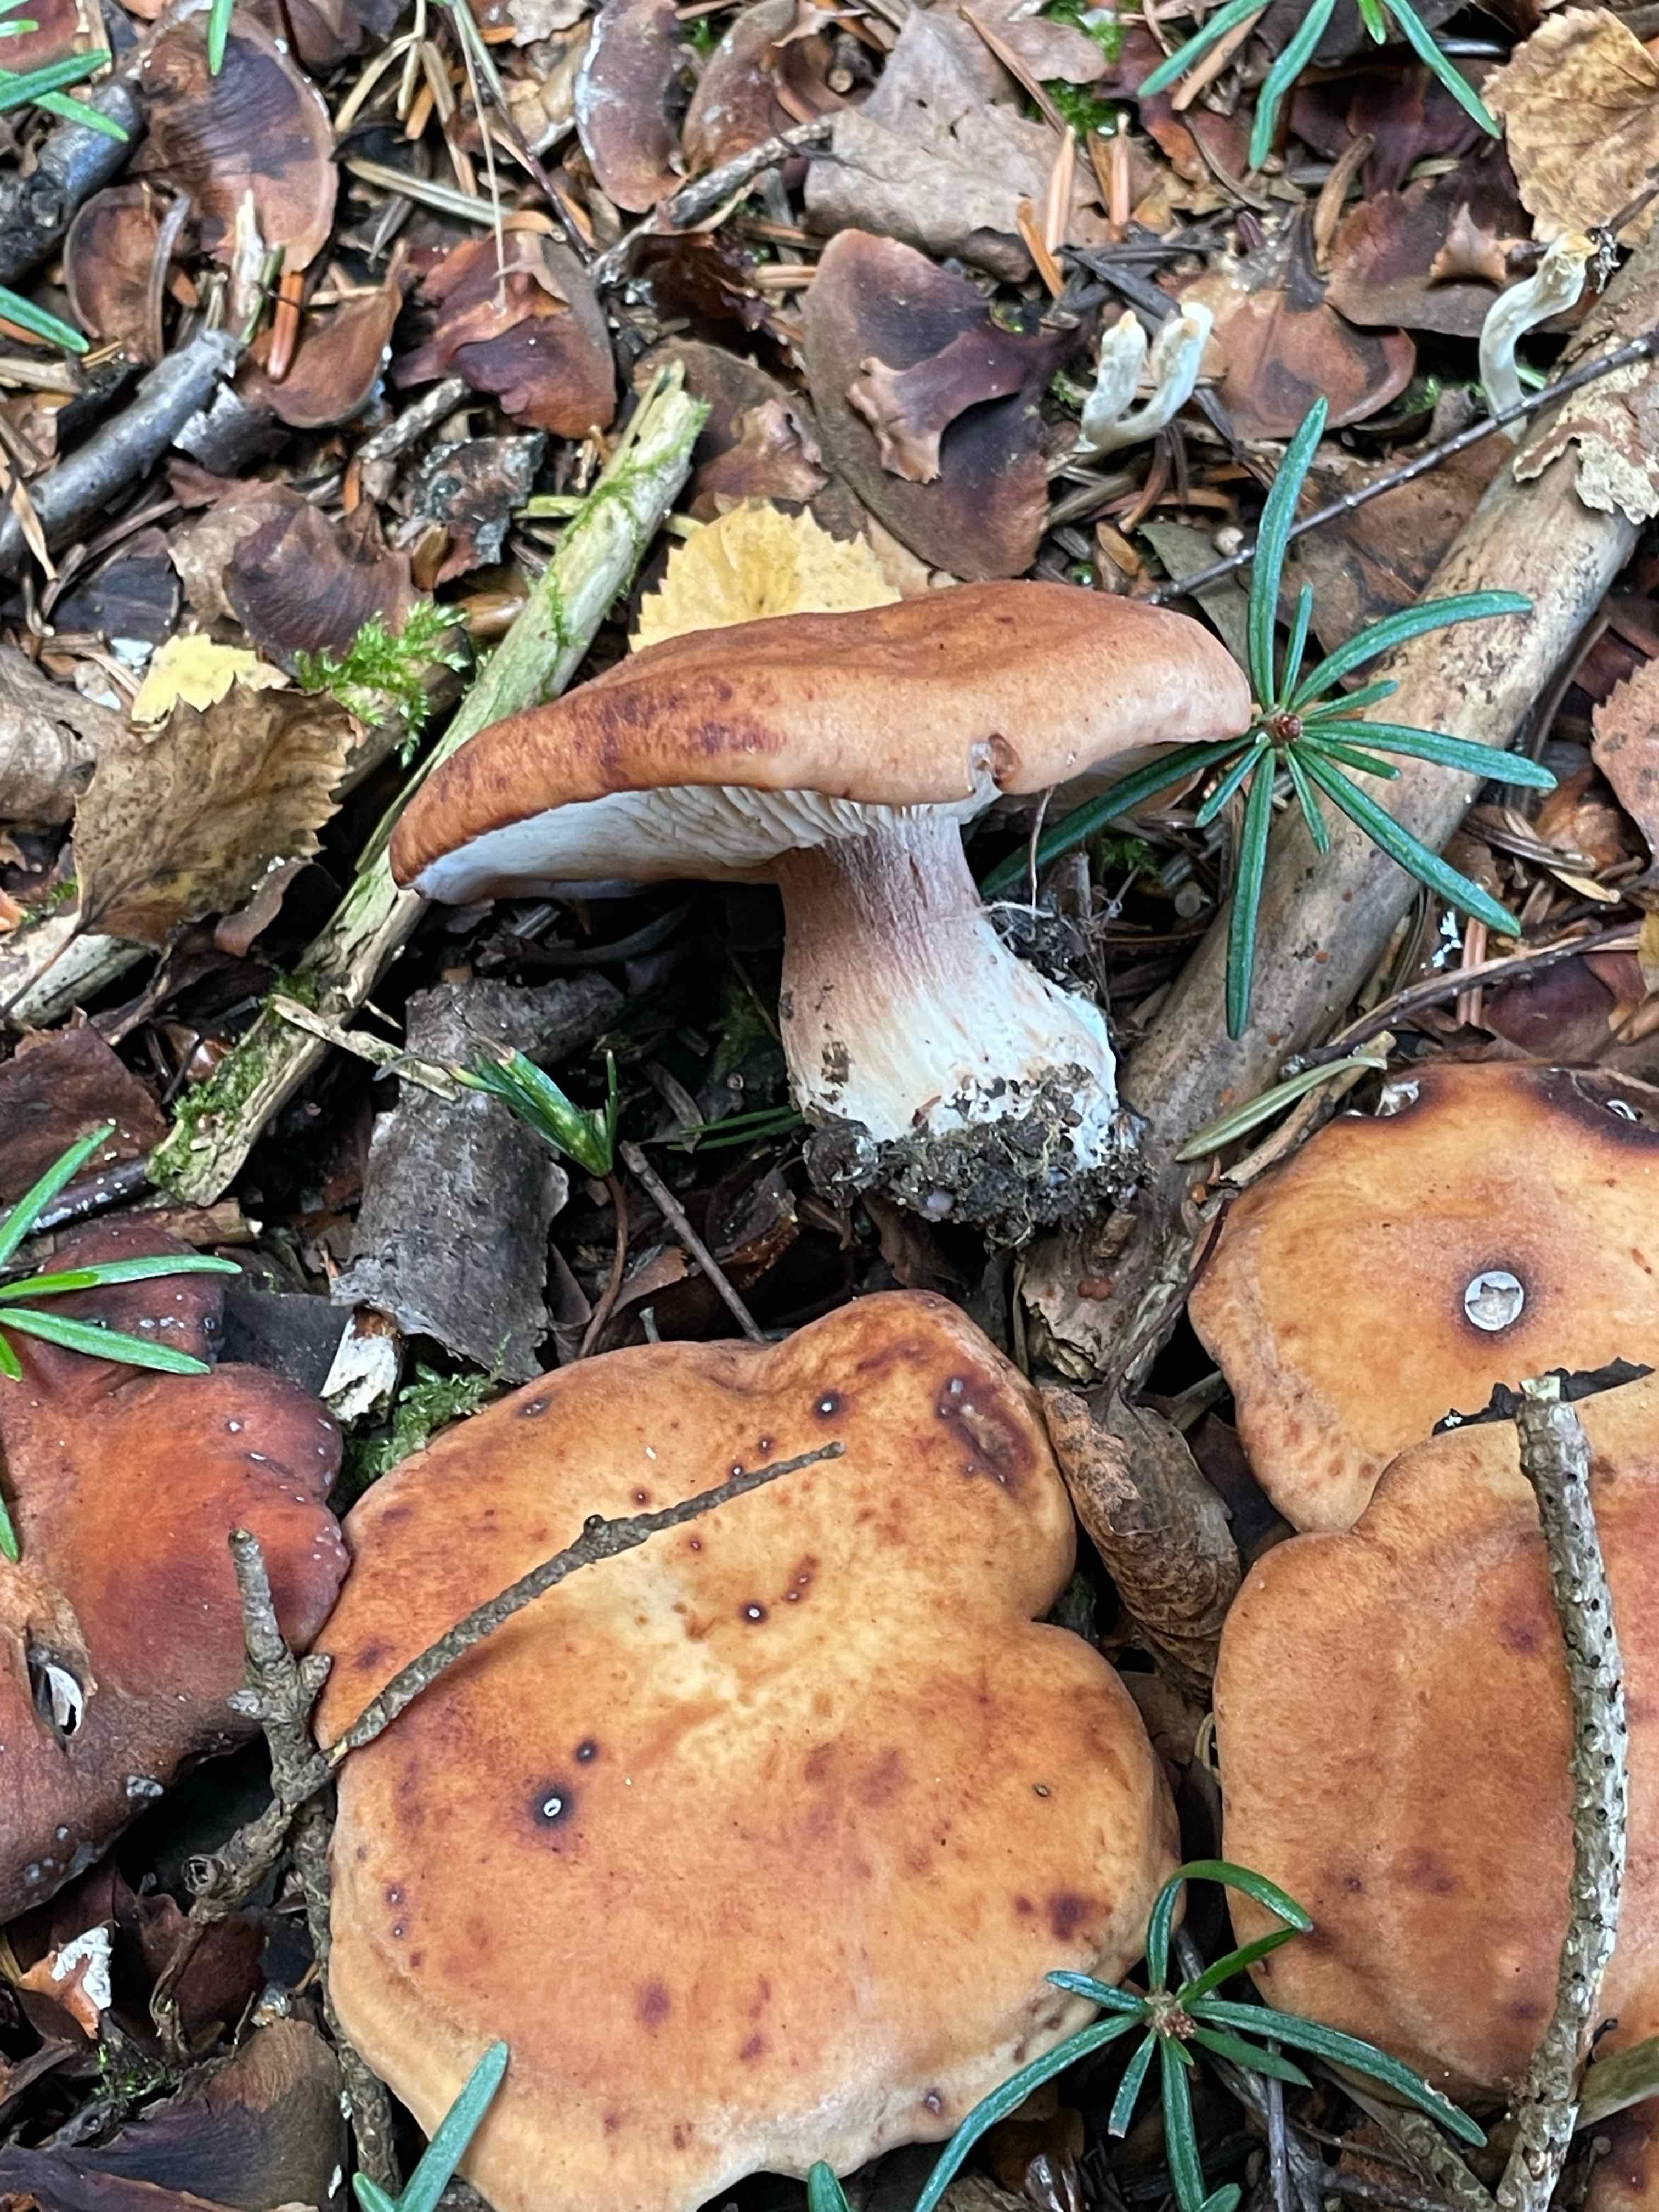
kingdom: Fungi
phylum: Basidiomycota
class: Agaricomycetes
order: Agaricales
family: Entolomataceae
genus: Clitopilus
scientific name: Clitopilus geminus
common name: kødfarvet troldhat
